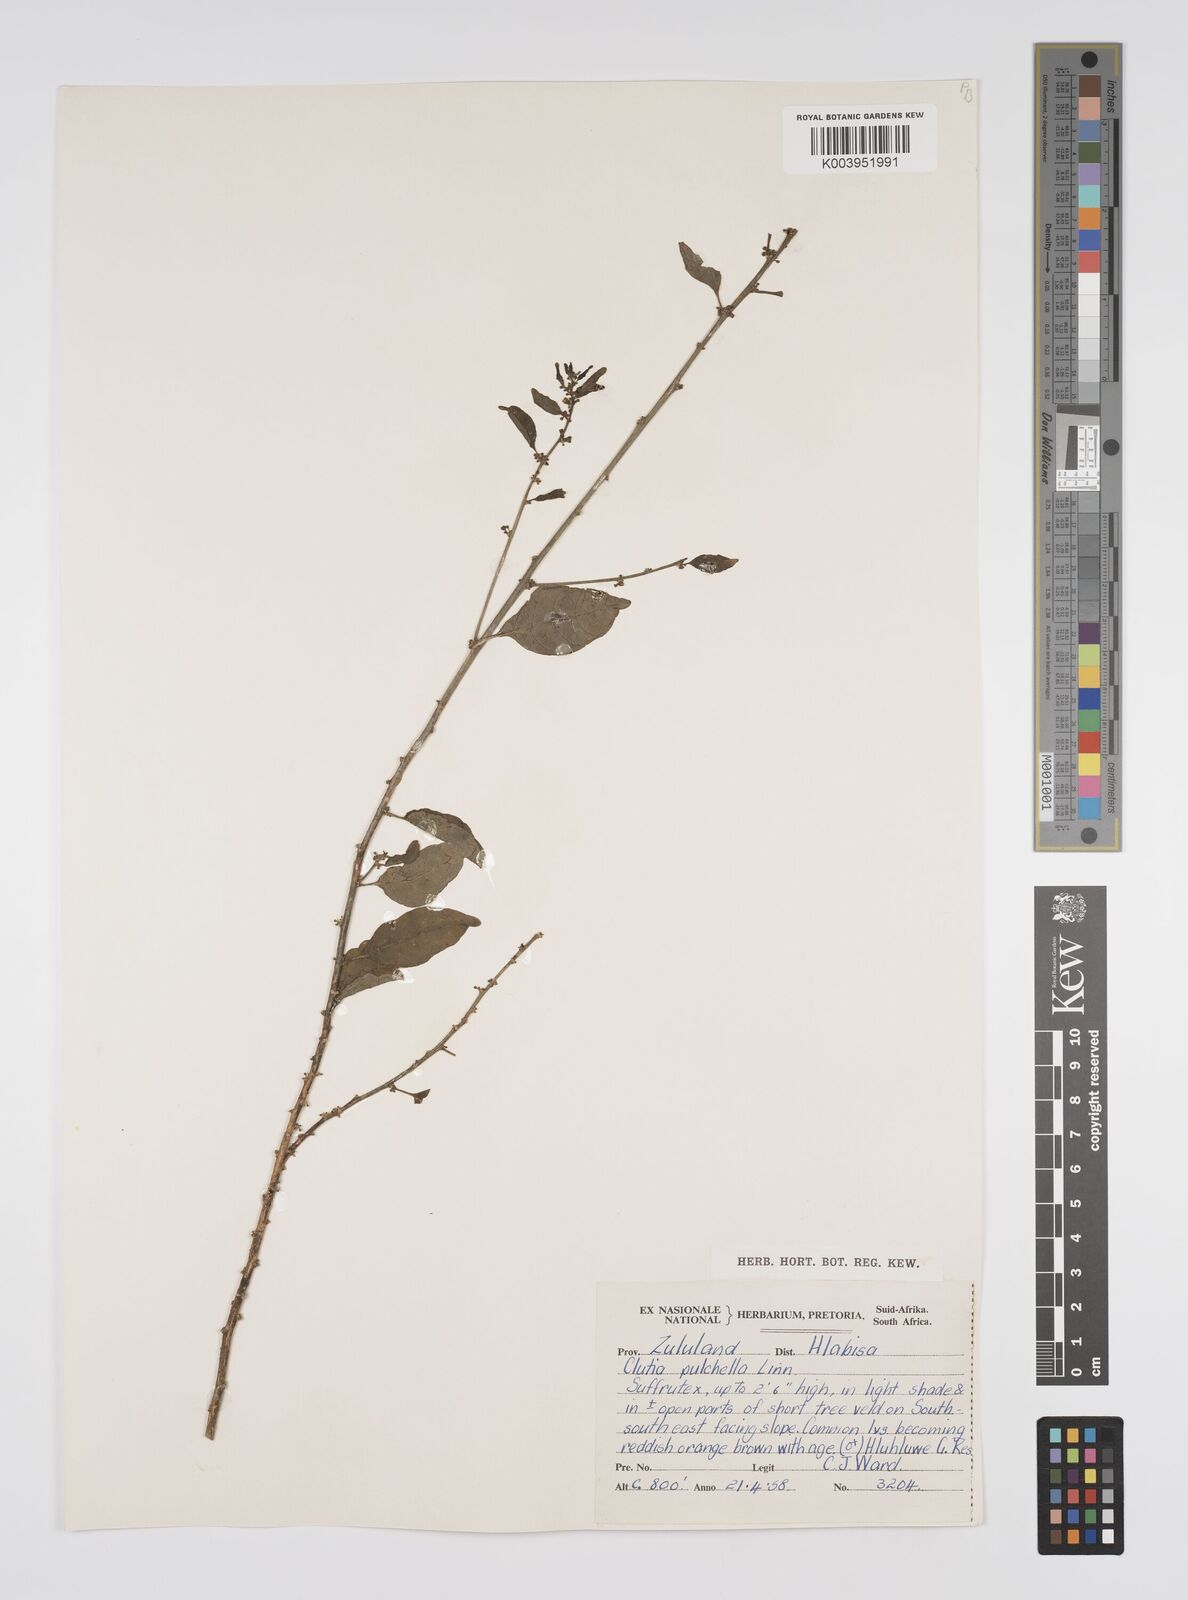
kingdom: Plantae
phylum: Tracheophyta
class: Magnoliopsida
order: Malpighiales
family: Peraceae
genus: Clutia
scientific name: Clutia pulchella
